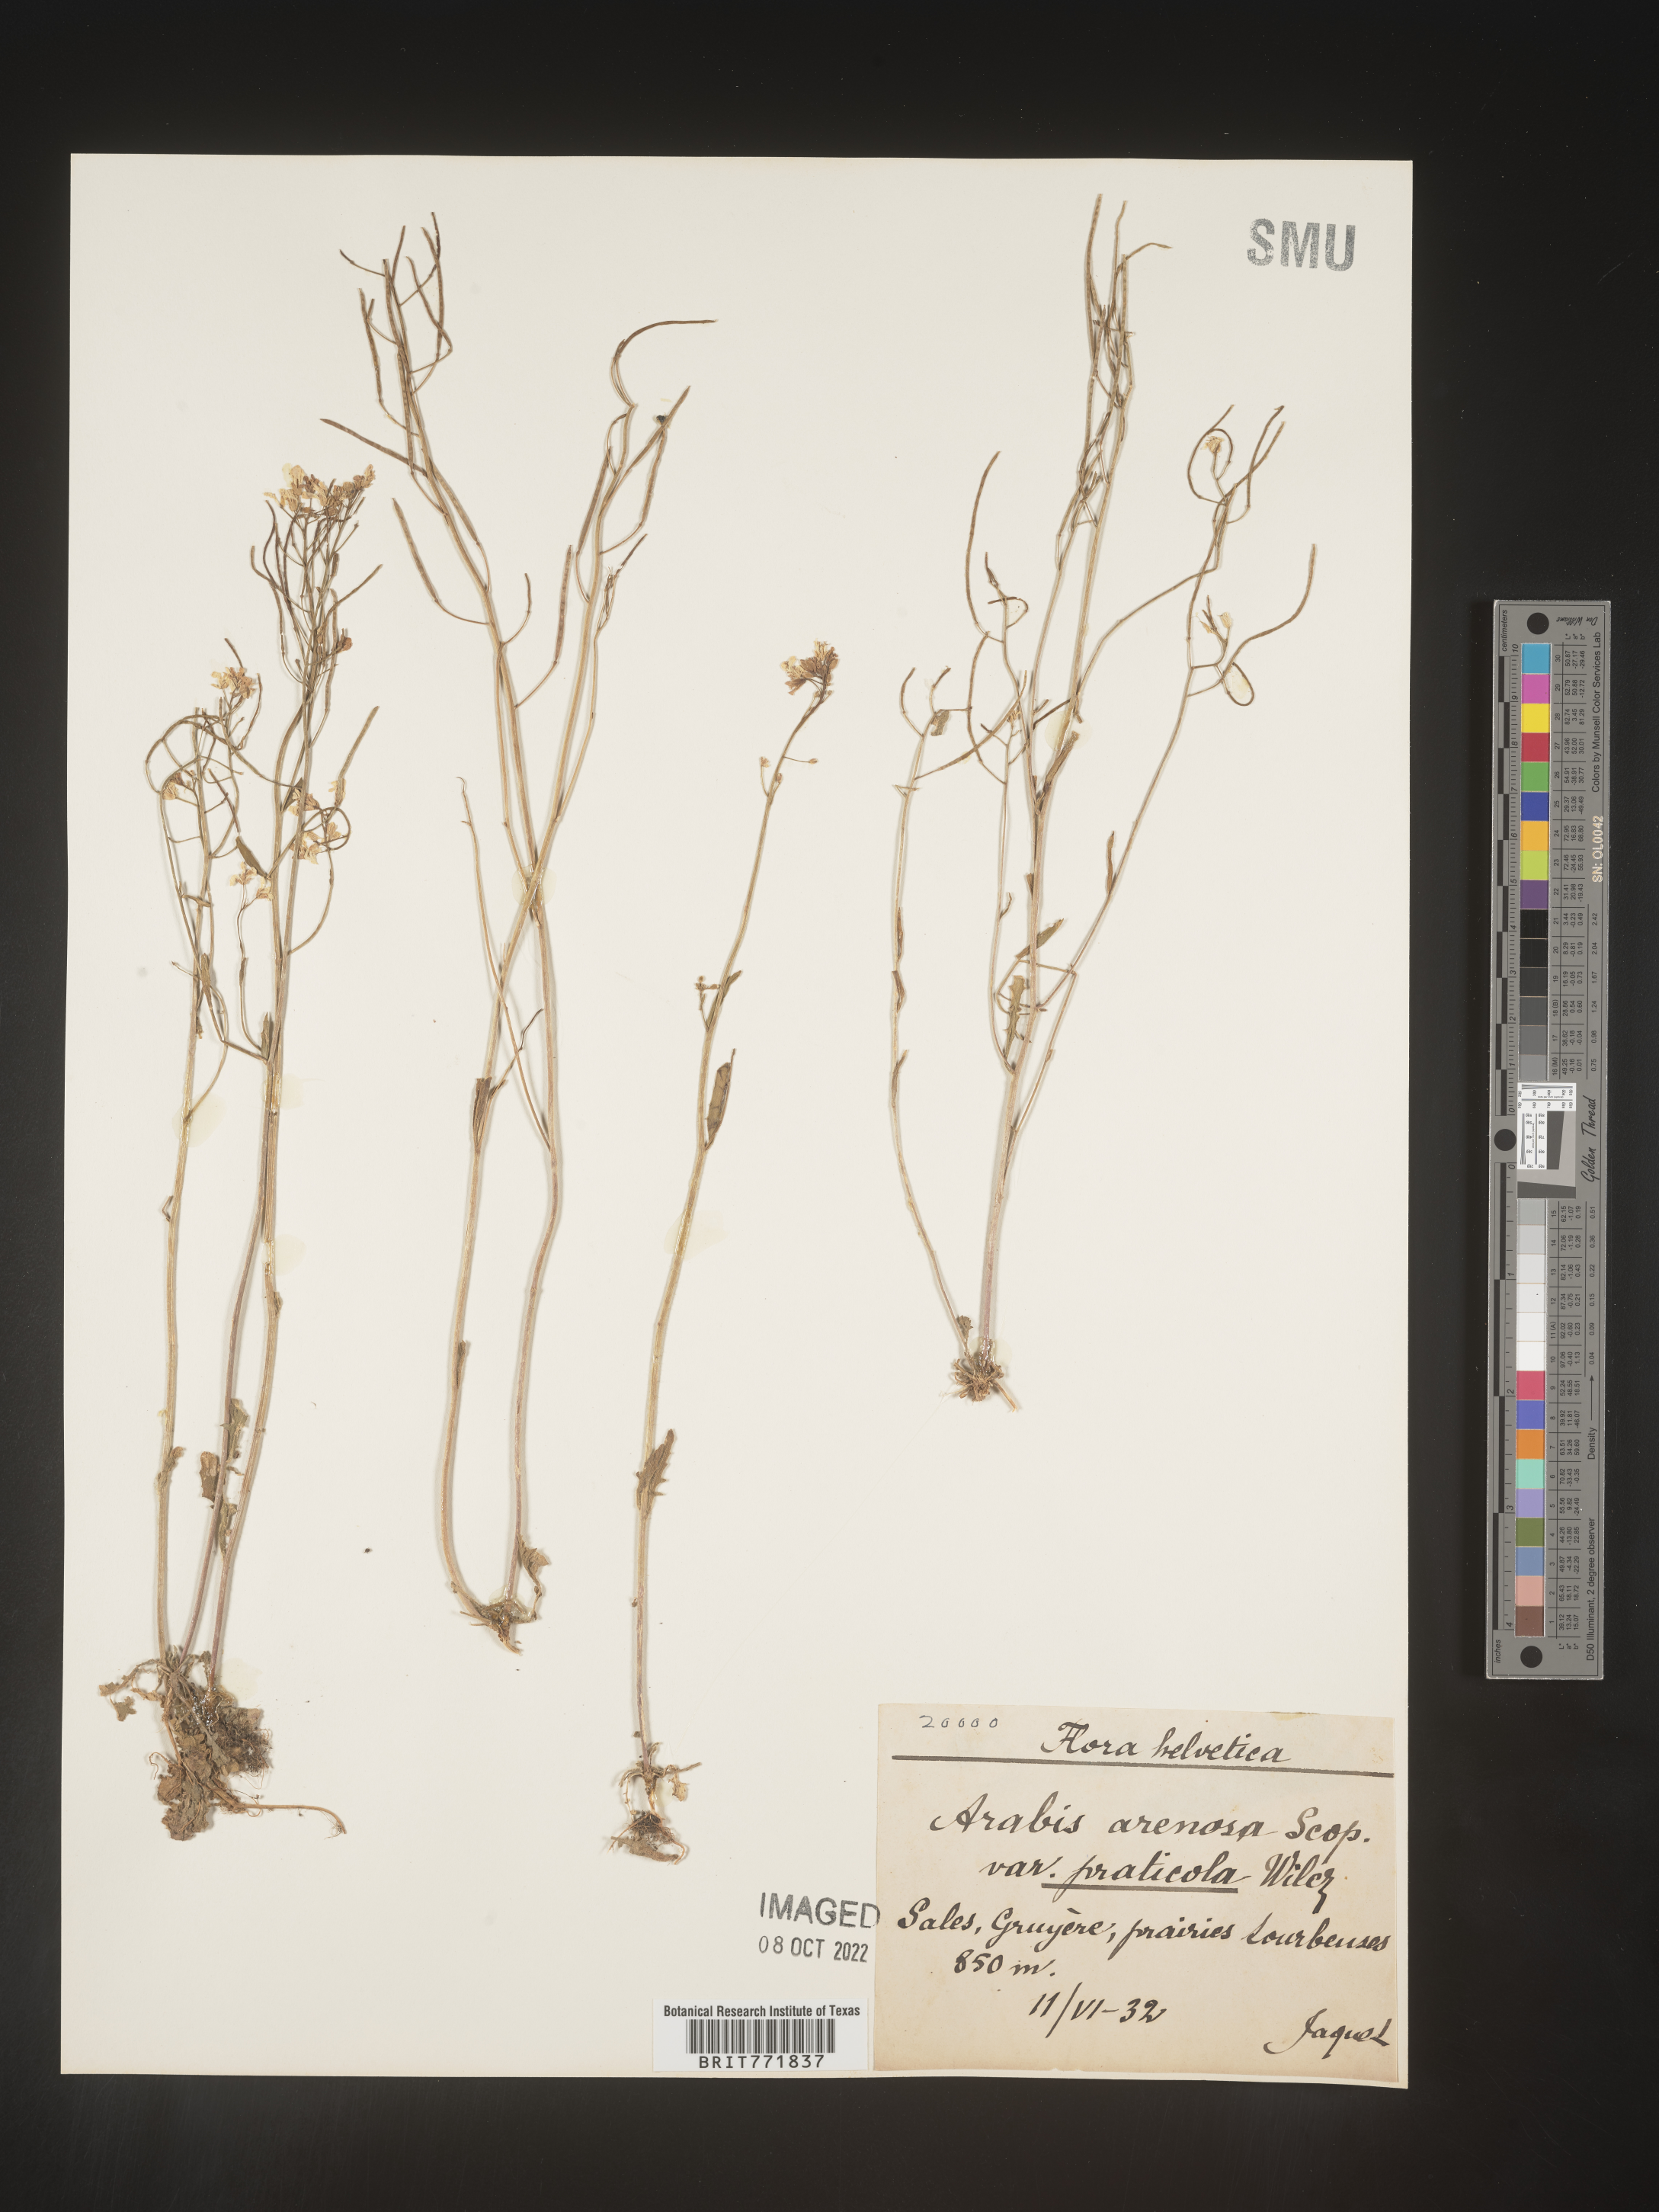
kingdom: Plantae
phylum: Tracheophyta
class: Magnoliopsida
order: Brassicales
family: Brassicaceae
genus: Arabis
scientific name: Arabis
